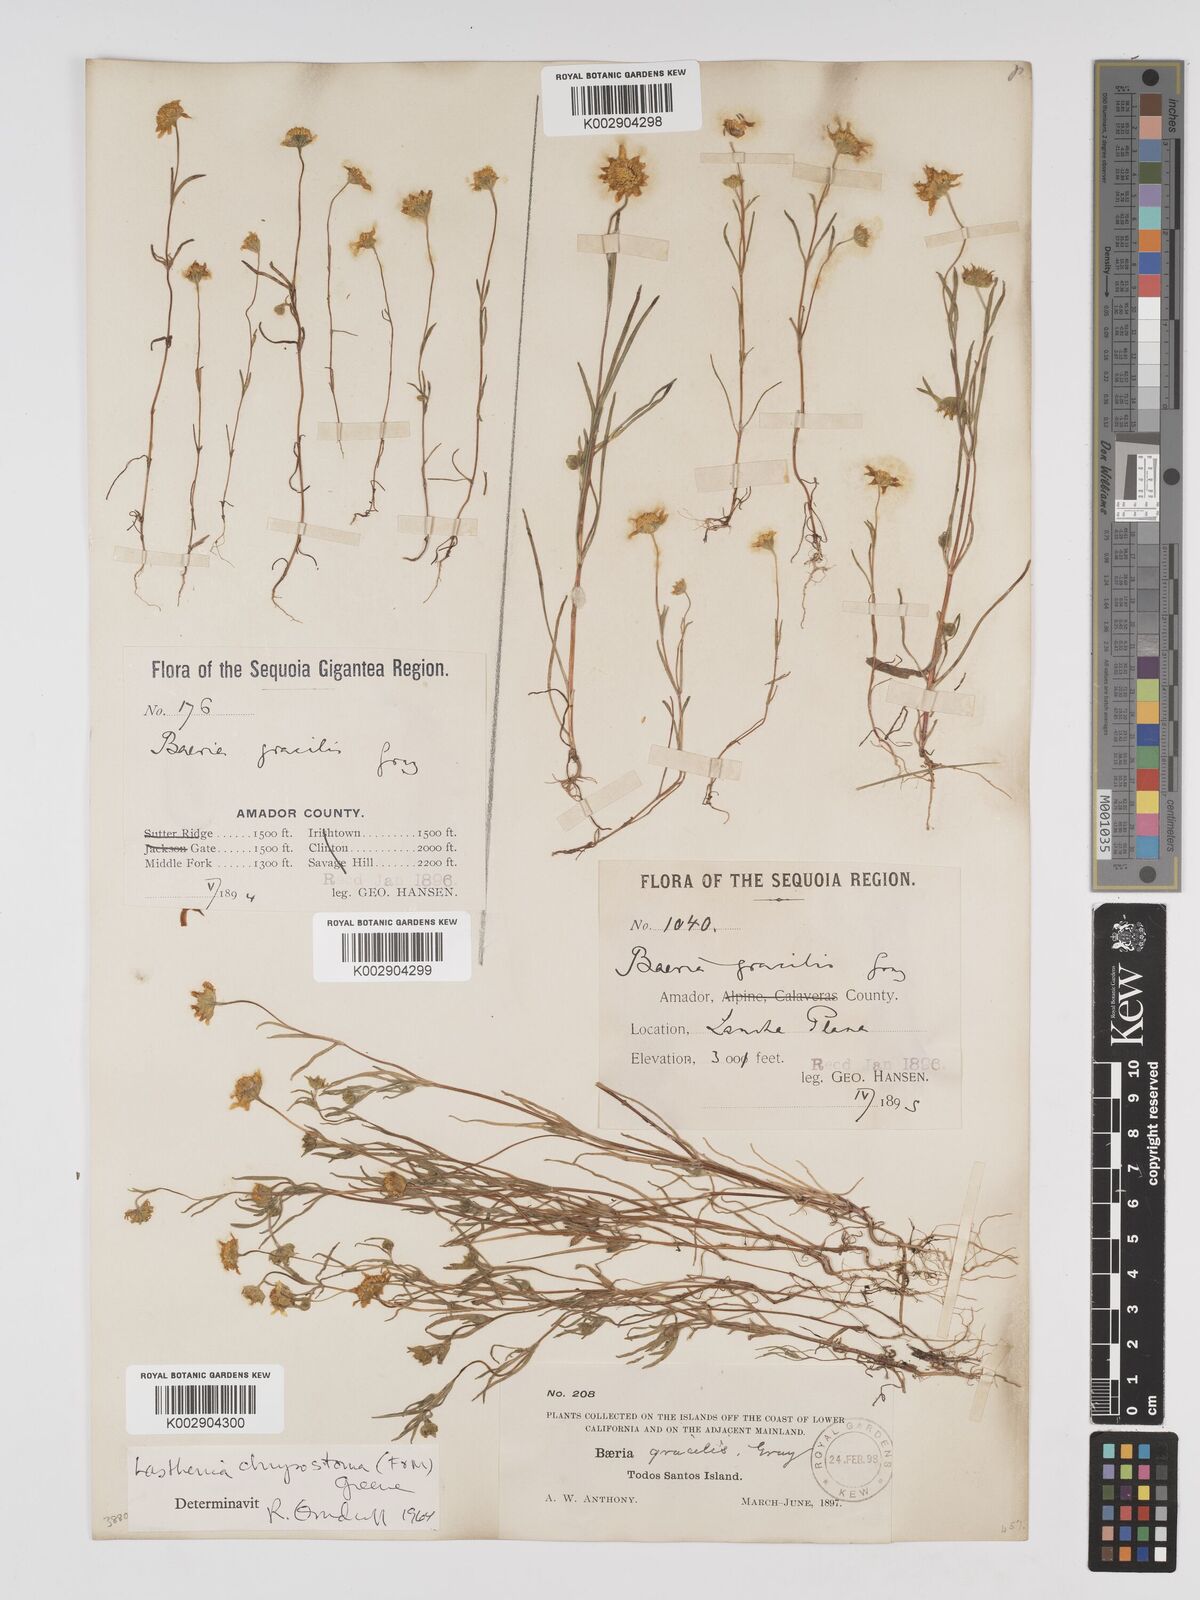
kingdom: Plantae
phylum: Tracheophyta
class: Magnoliopsida
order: Asterales
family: Asteraceae
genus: Lasthenia
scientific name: Lasthenia californica
